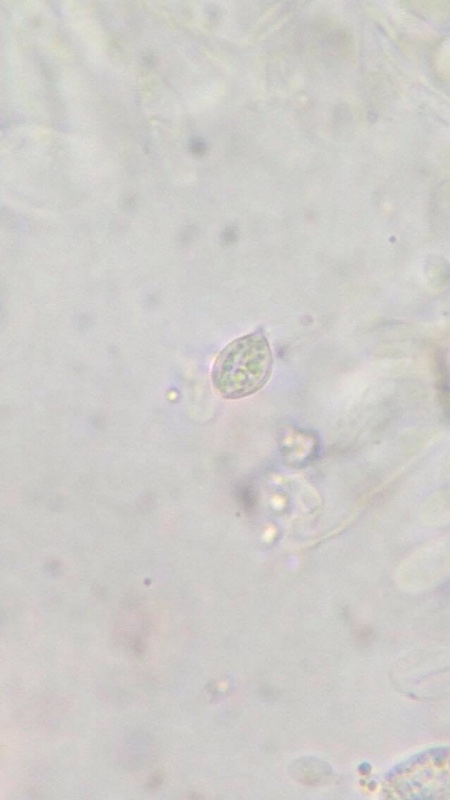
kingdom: Fungi
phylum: Basidiomycota
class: Agaricomycetes
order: Agaricales
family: Entolomataceae
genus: Clitopilus
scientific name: Clitopilus prunulus
